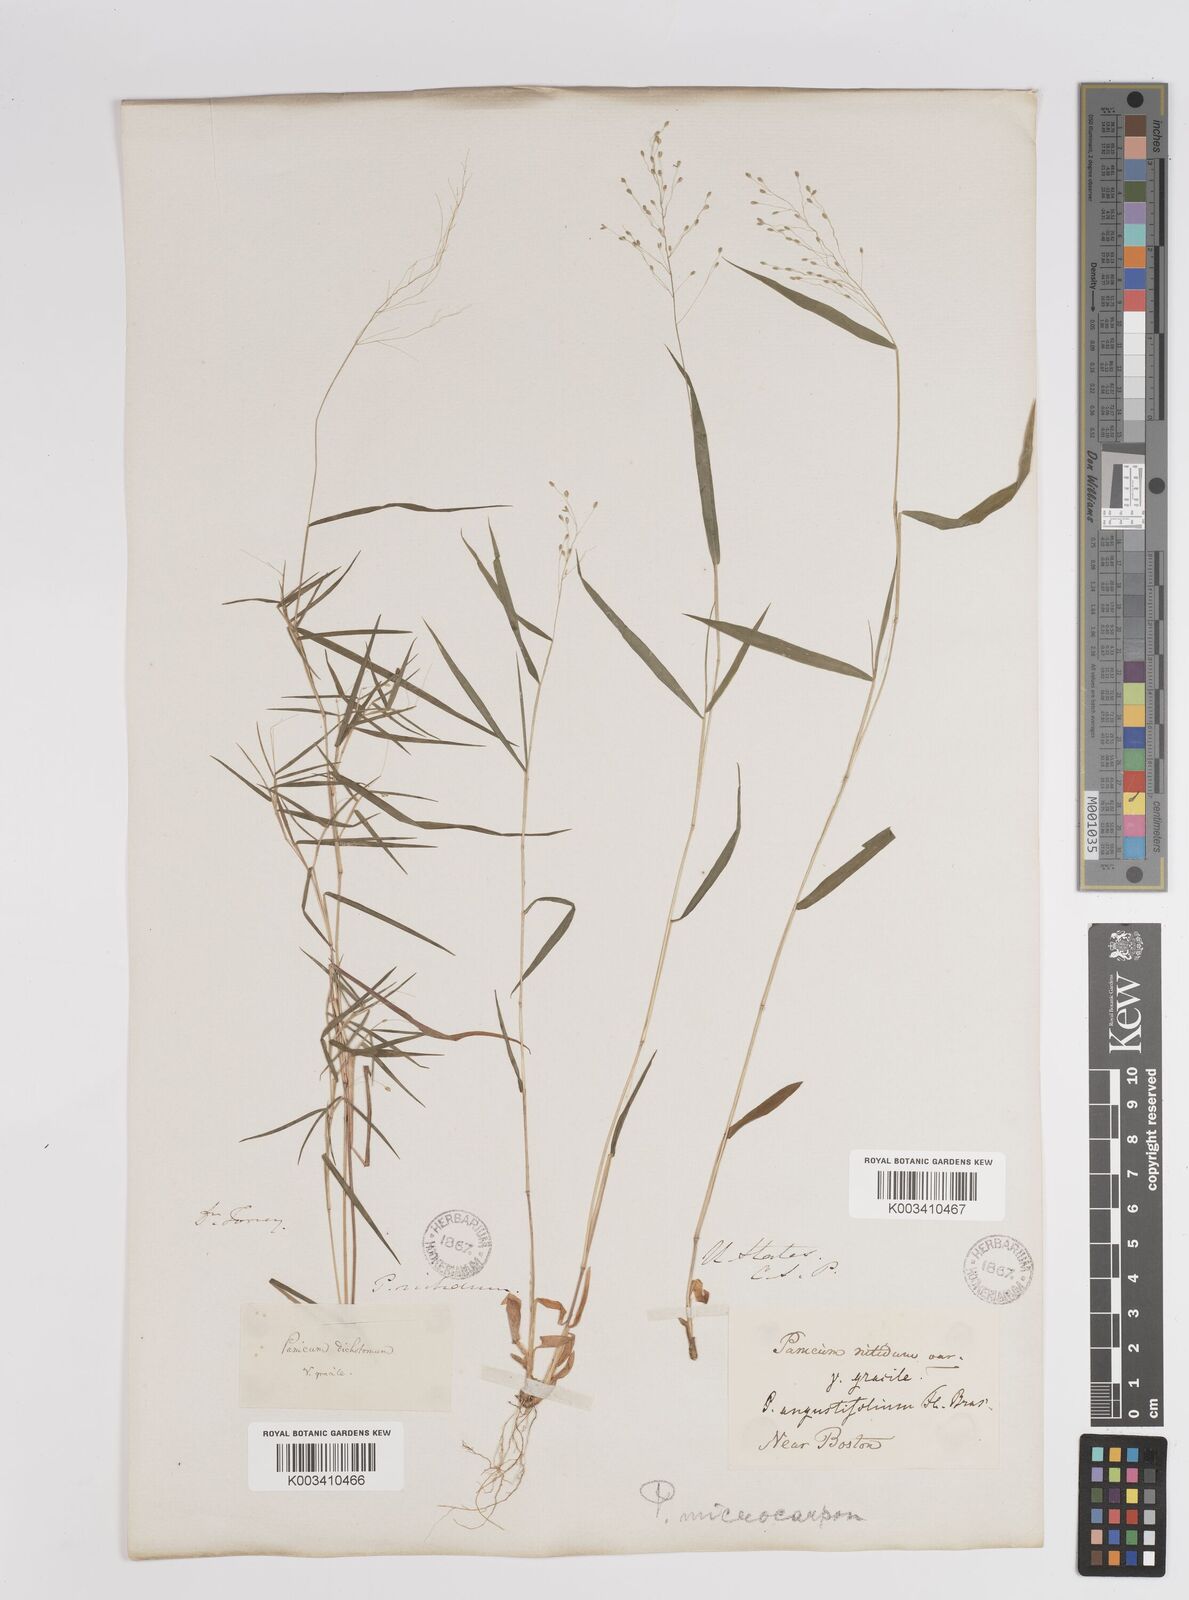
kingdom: Plantae
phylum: Tracheophyta
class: Liliopsida
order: Poales
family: Poaceae
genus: Dichanthelium
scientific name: Dichanthelium polyanthes
